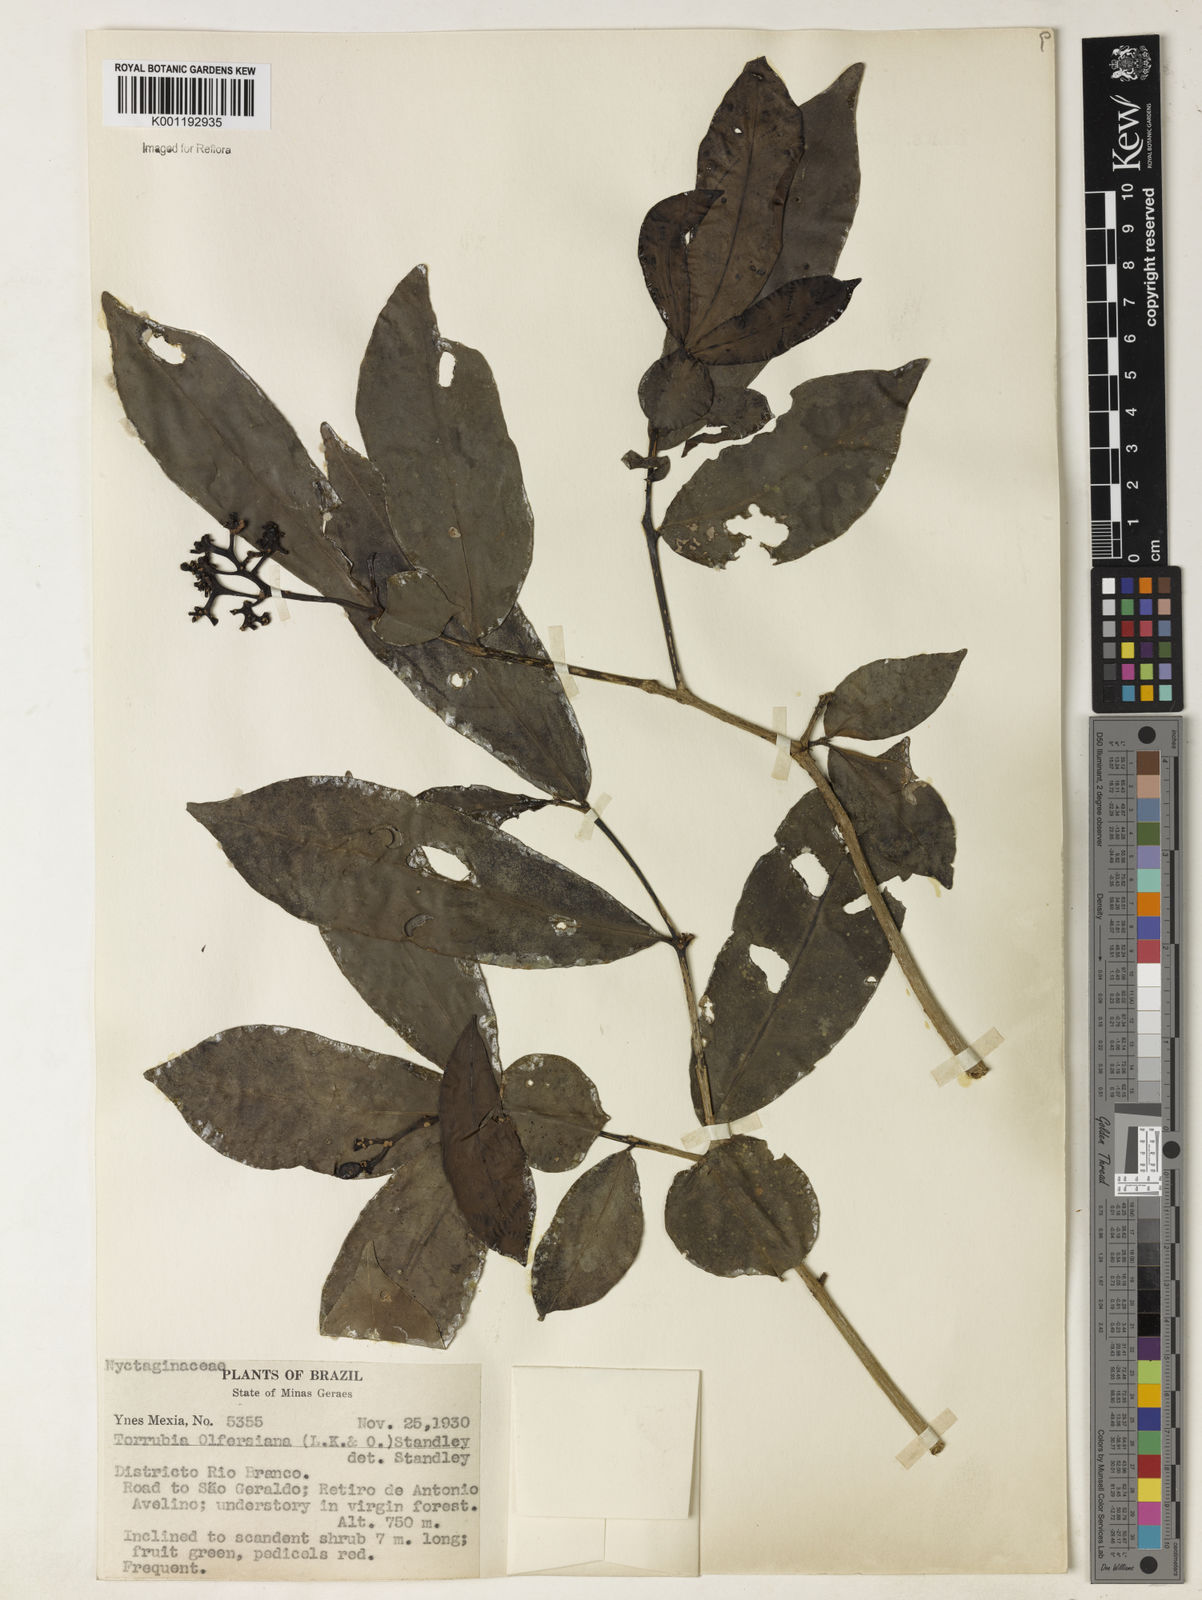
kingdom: Plantae
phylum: Tracheophyta
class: Magnoliopsida
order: Caryophyllales
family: Nyctaginaceae
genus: Guapira
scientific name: Guapira
